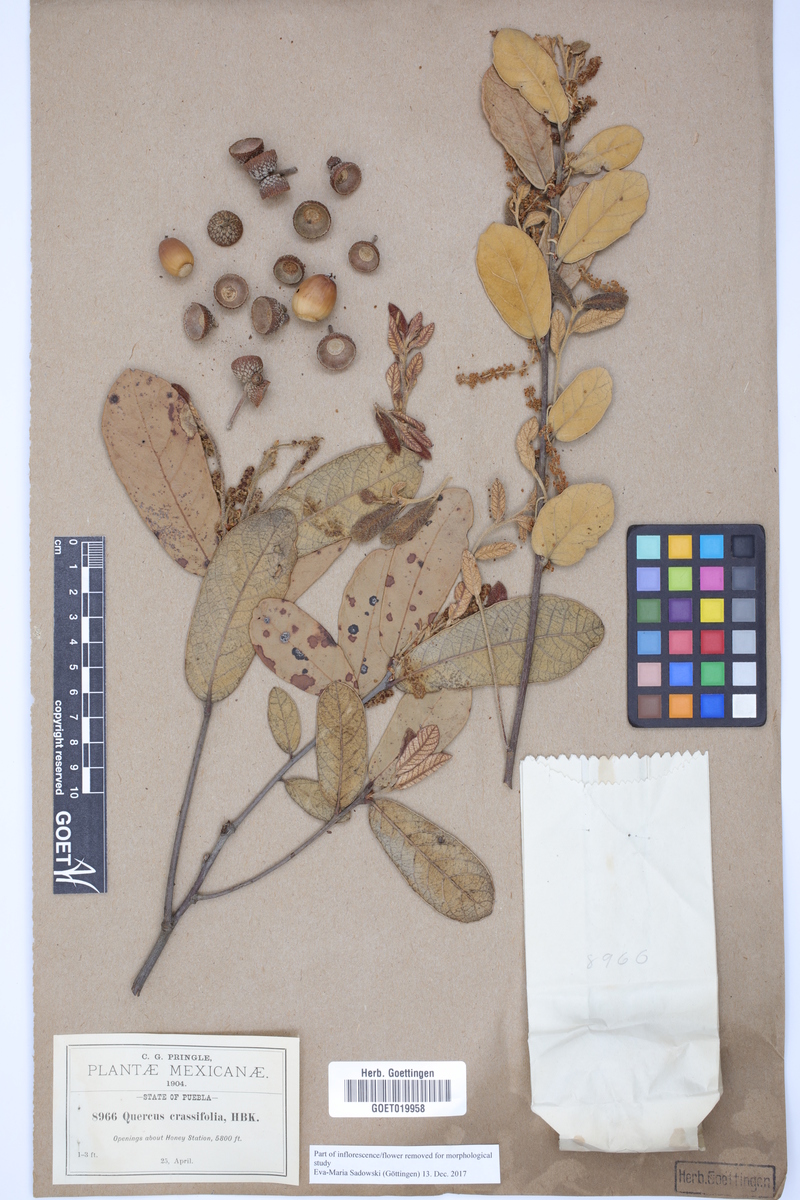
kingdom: Plantae
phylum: Tracheophyta
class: Magnoliopsida
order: Fagales
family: Fagaceae
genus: Quercus
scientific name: Quercus crassifolia
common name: Leather leaf mexican oak
